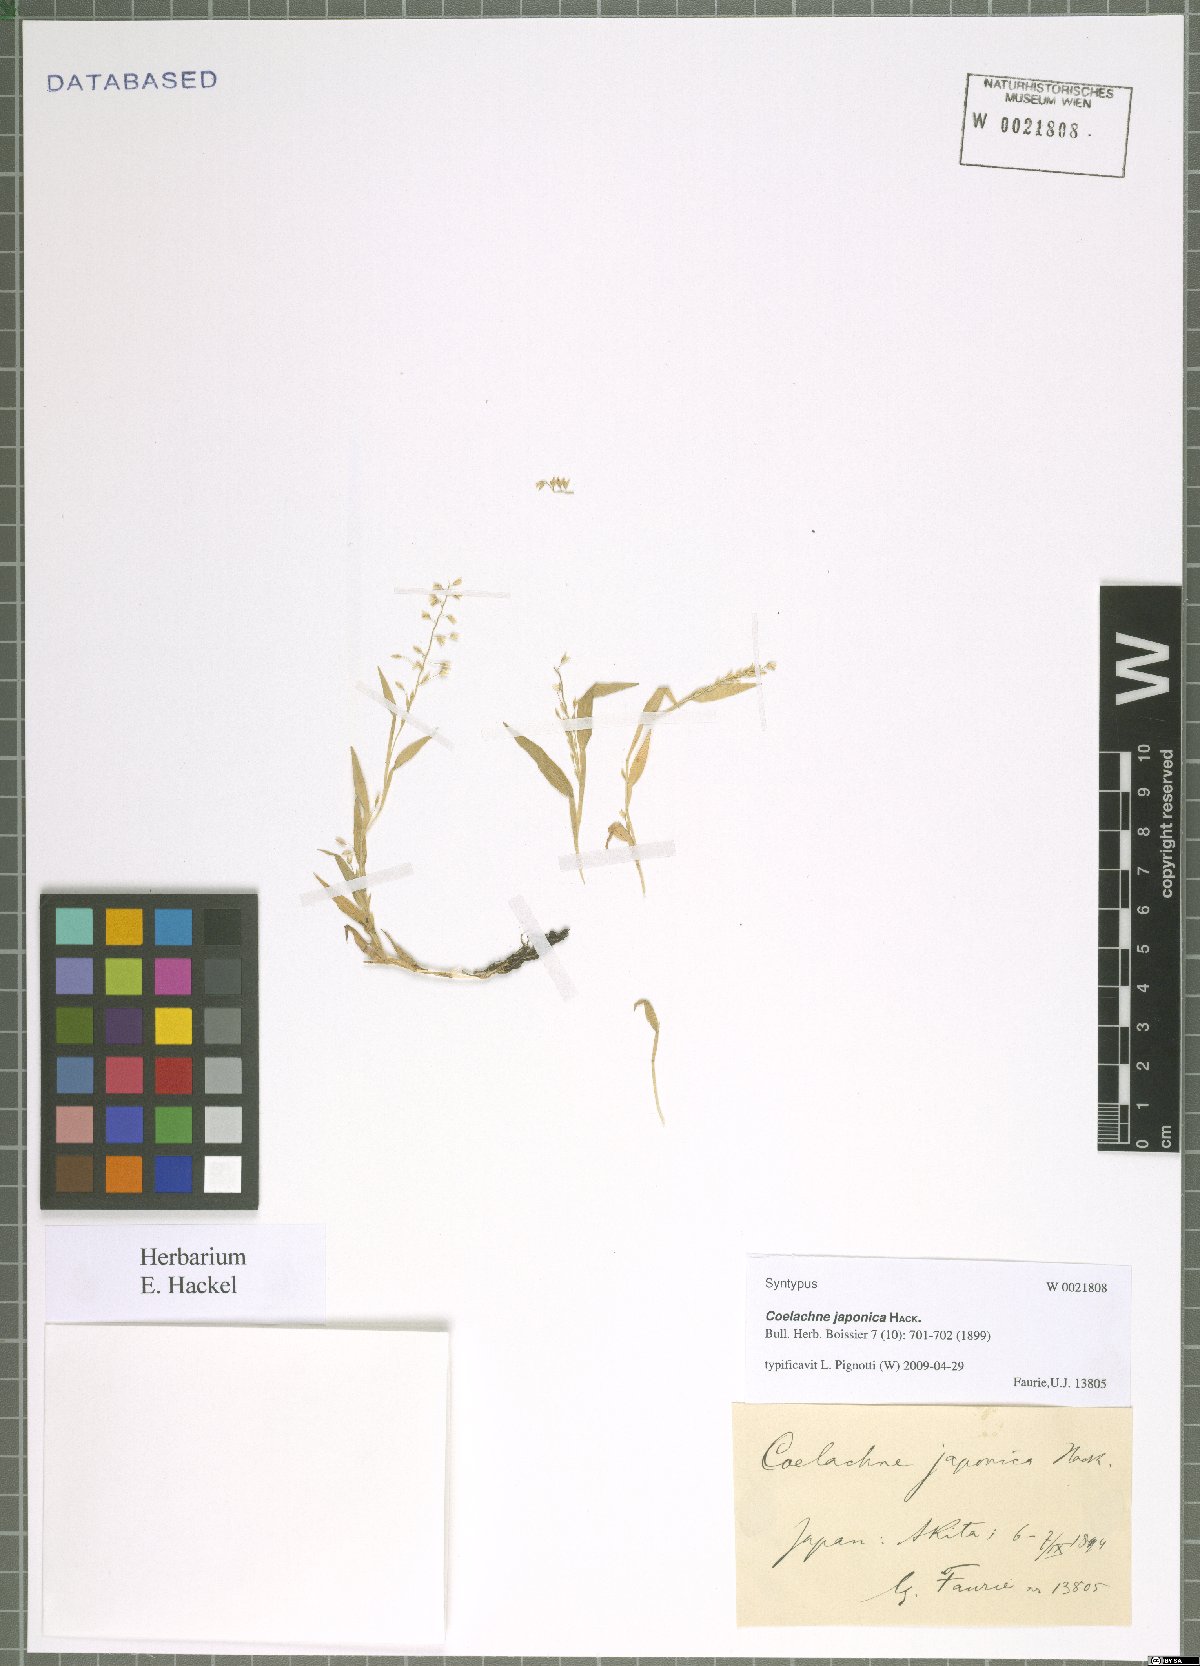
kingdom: Plantae
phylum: Tracheophyta
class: Liliopsida
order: Poales
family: Poaceae
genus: Coelachne
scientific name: Coelachne japonica
